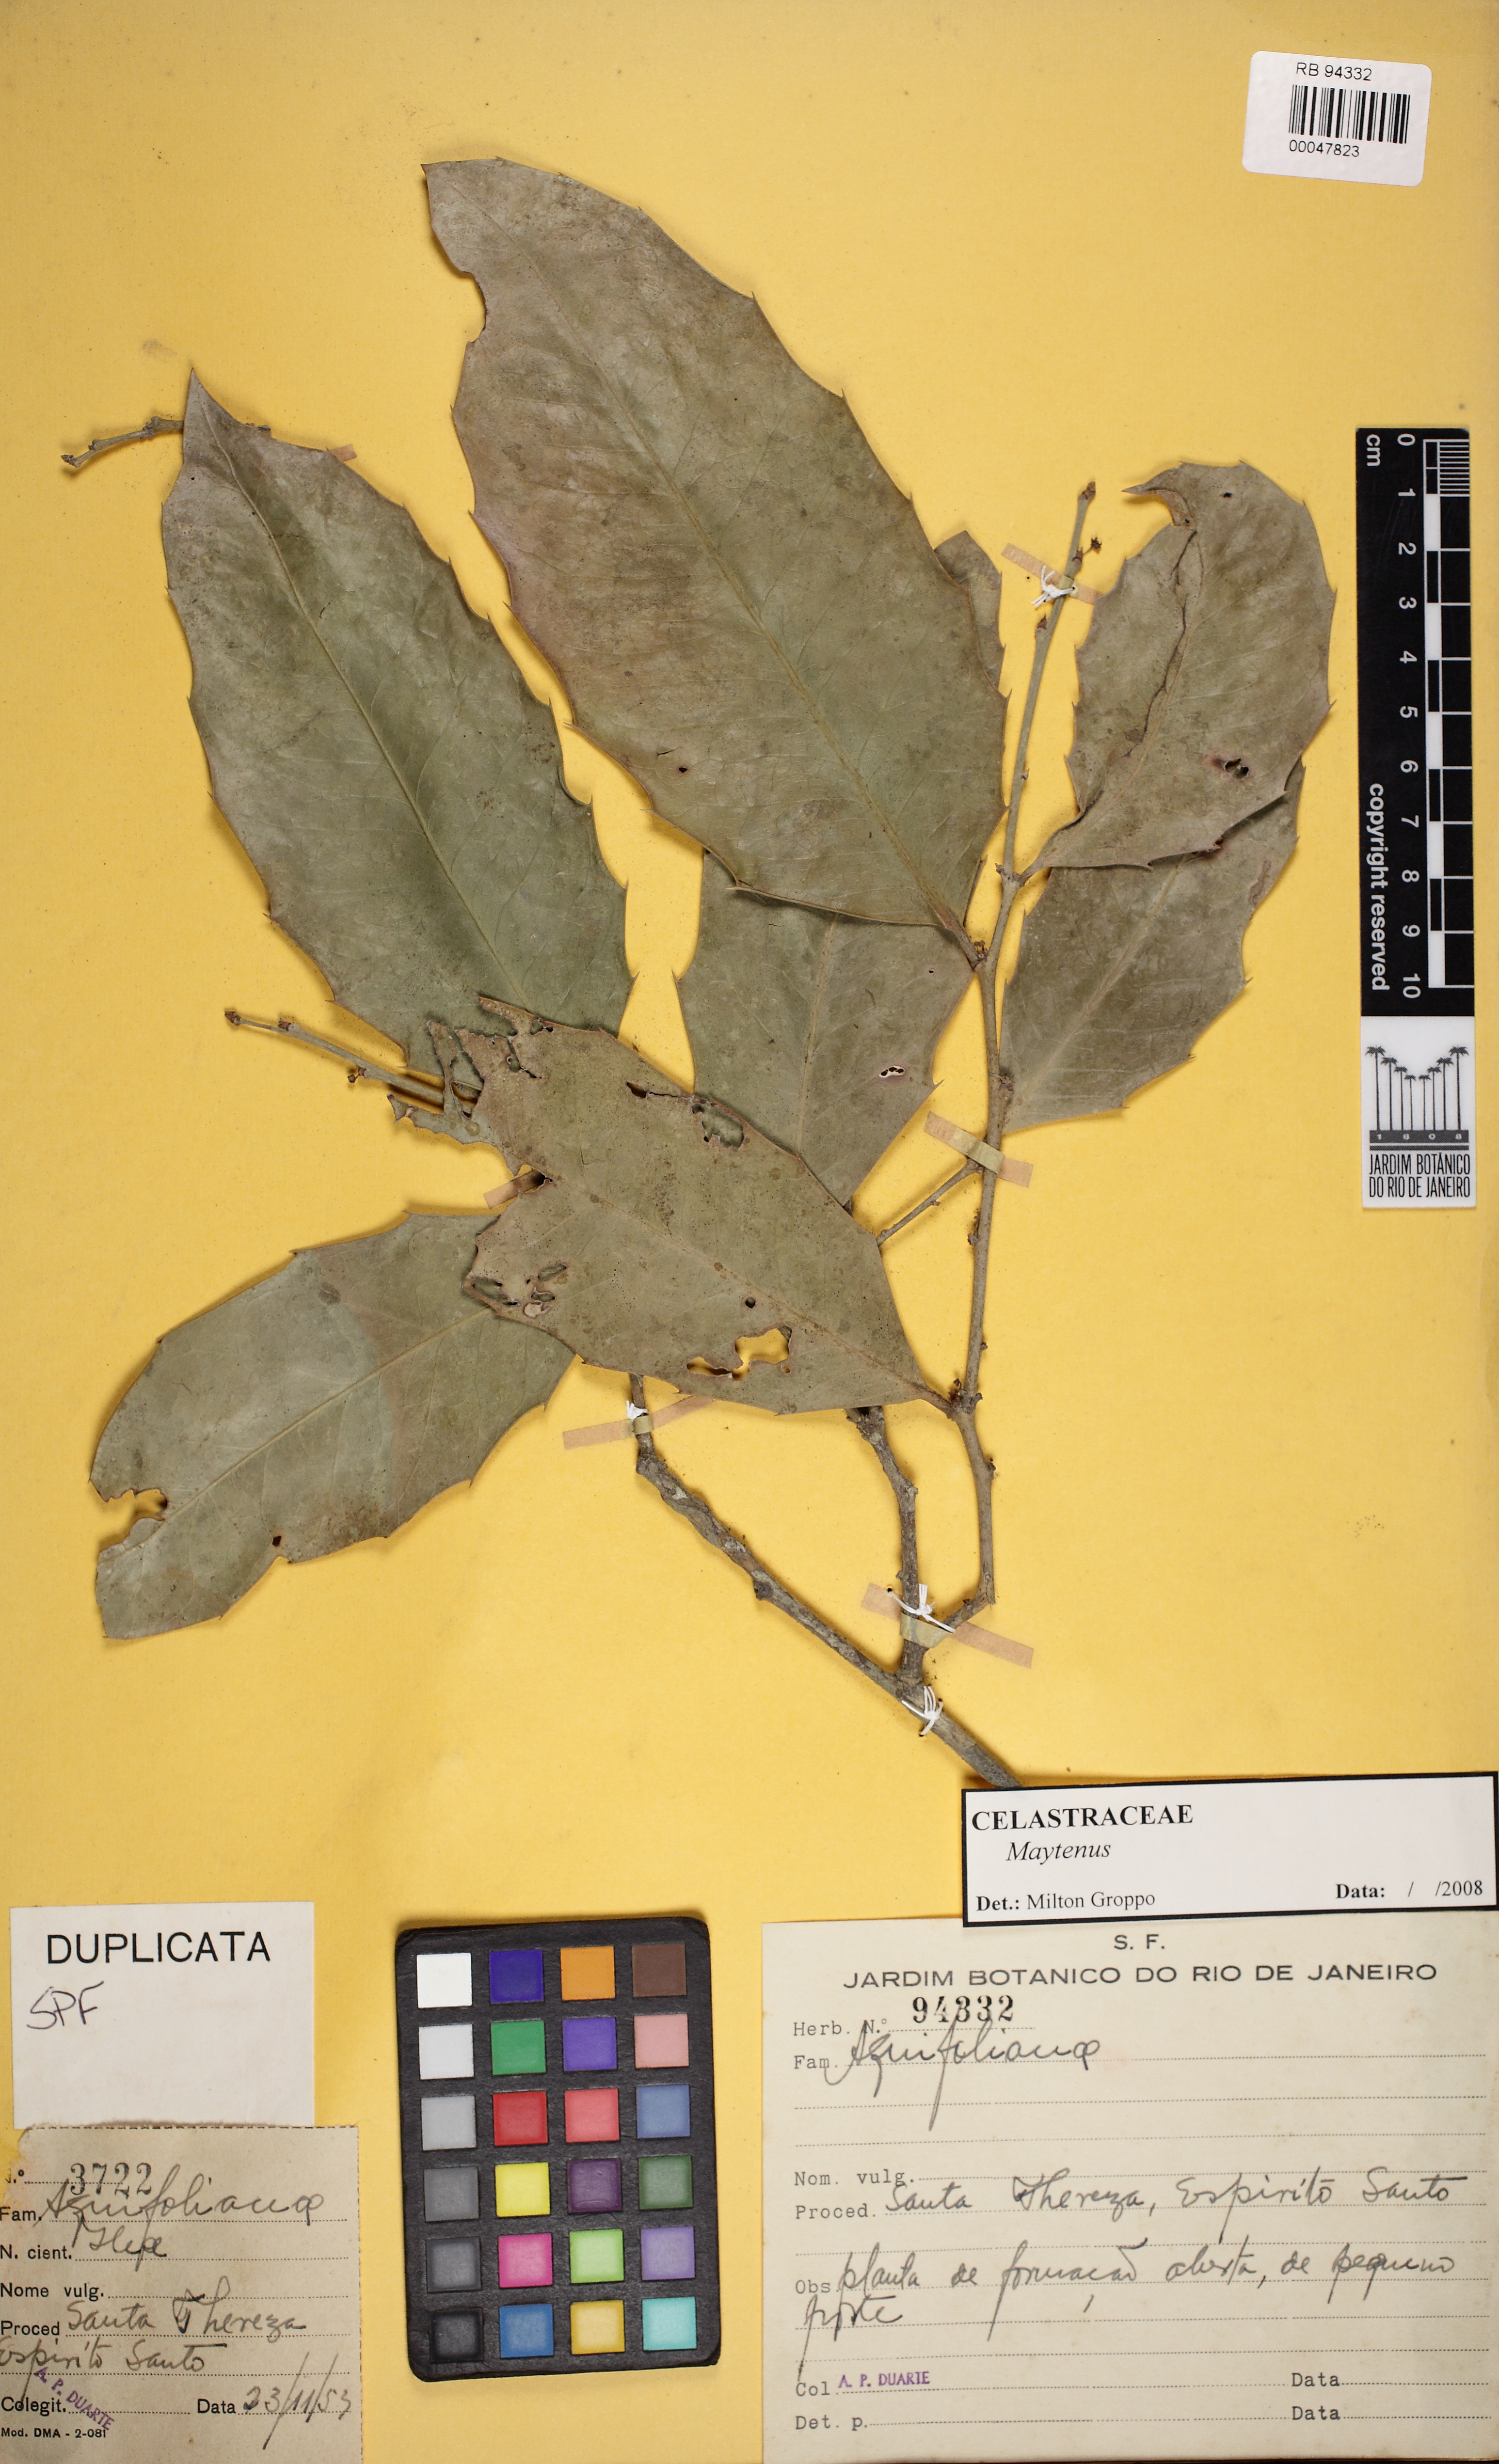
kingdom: Plantae
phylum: Tracheophyta
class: Magnoliopsida
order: Celastrales
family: Celastraceae
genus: Maytenus
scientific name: Maytenus
